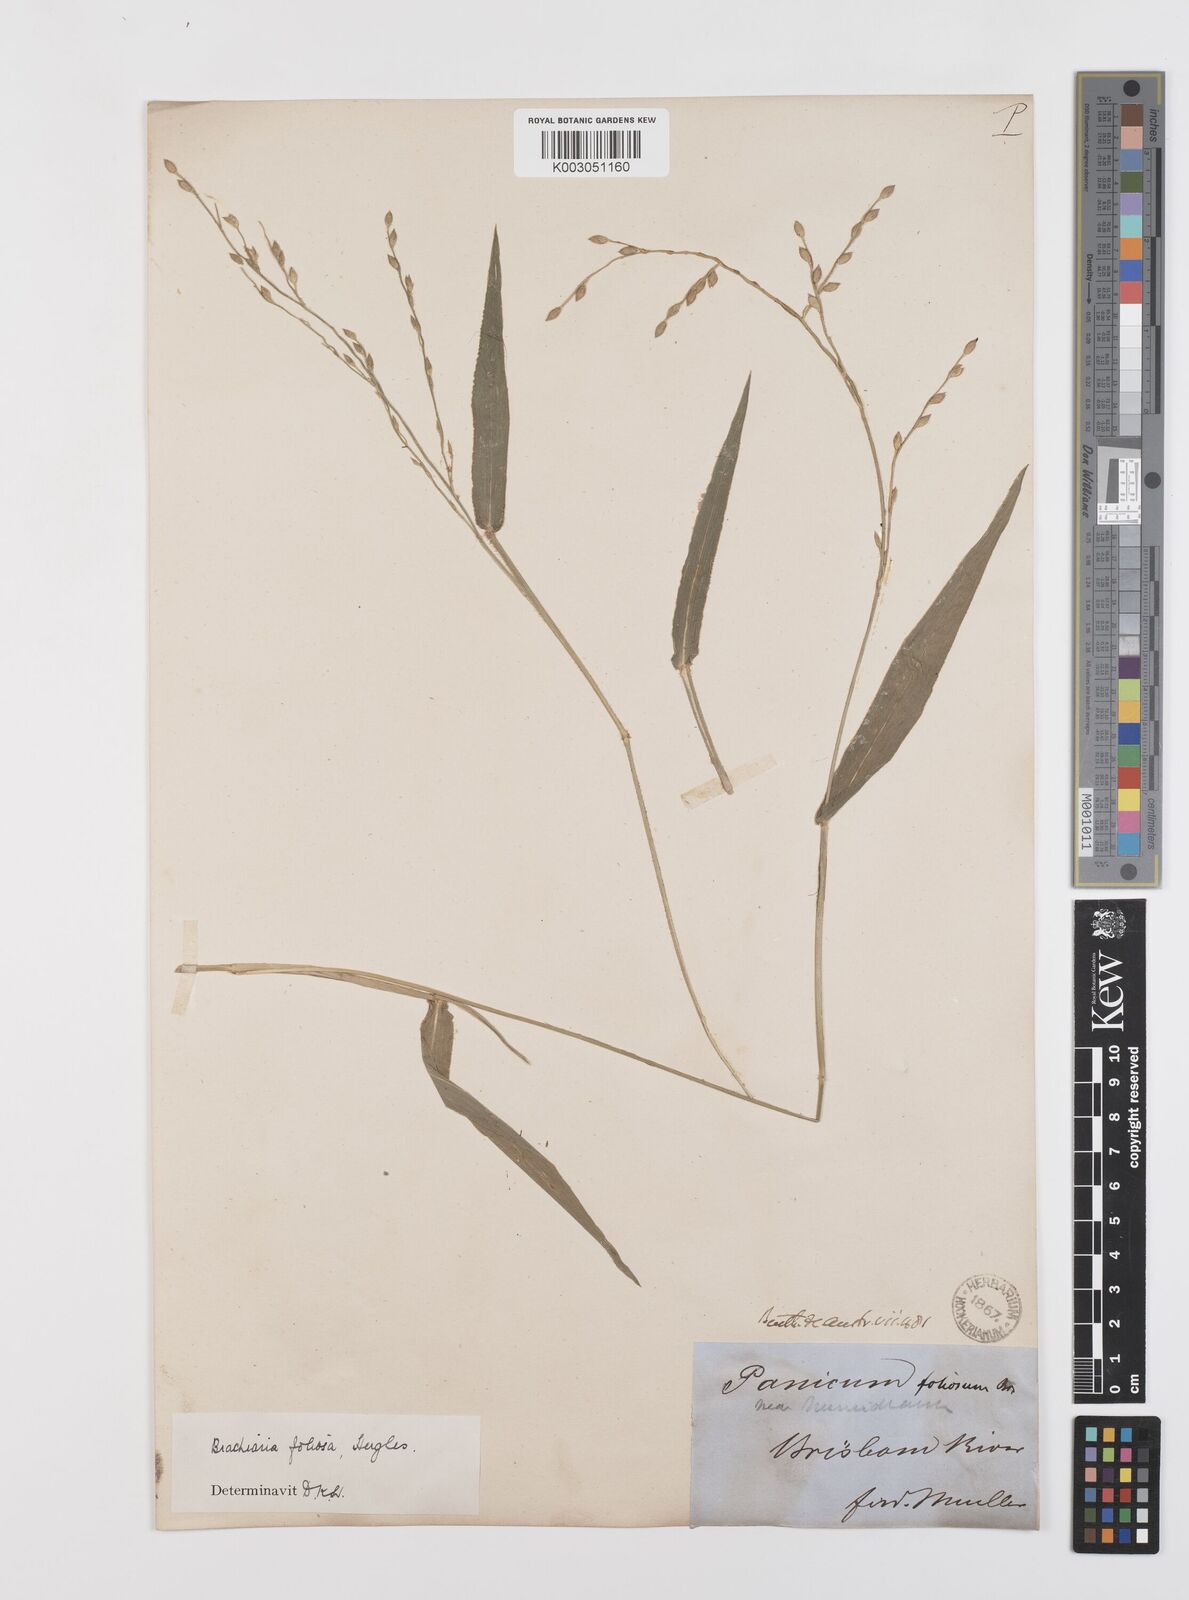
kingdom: Plantae
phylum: Tracheophyta
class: Liliopsida
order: Poales
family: Poaceae
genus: Urochloa
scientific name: Urochloa foliosa
